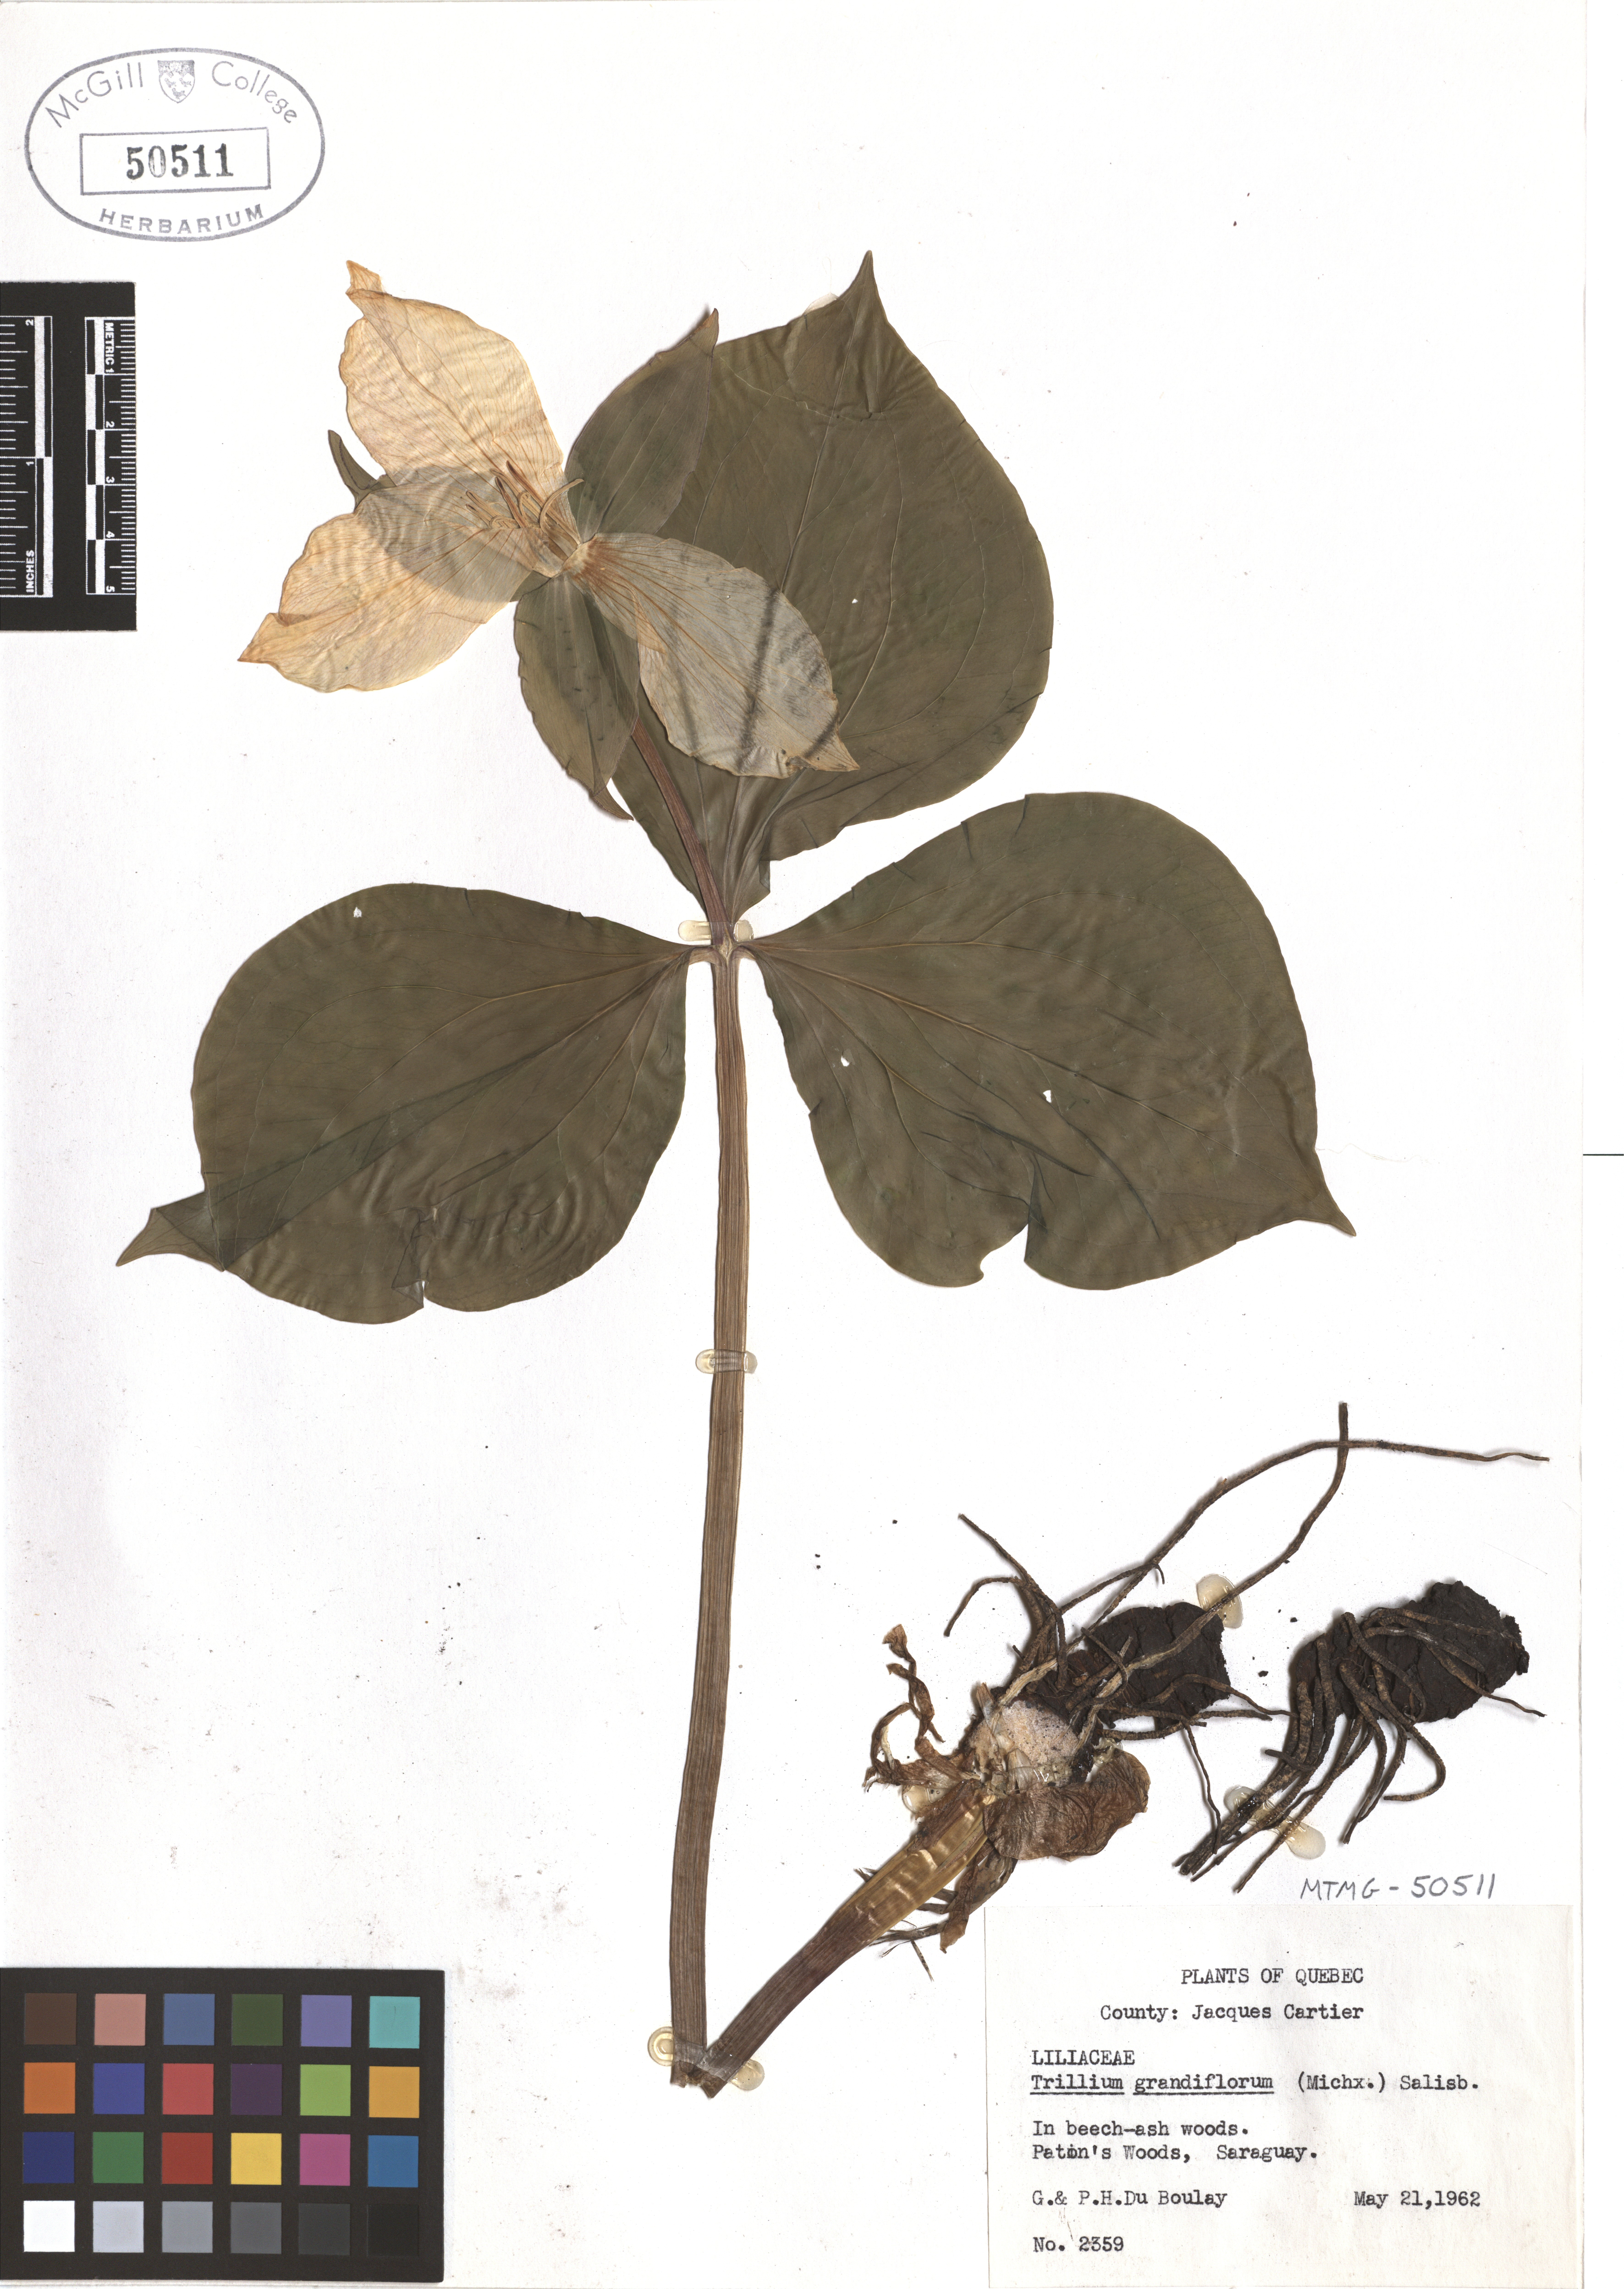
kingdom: Plantae
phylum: Tracheophyta
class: Liliopsida
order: Liliales
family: Melanthiaceae
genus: Trillium
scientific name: Trillium grandiflorum
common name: Great white trillium
